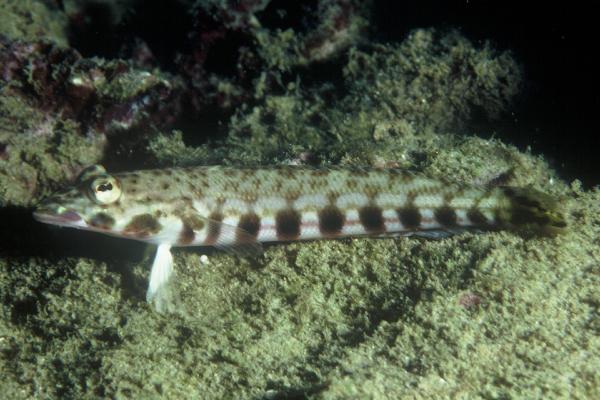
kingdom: Animalia
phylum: Chordata
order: Perciformes
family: Pinguipedidae
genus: Parapercis
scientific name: Parapercis millepunctata
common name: Black-dotted sandperch
